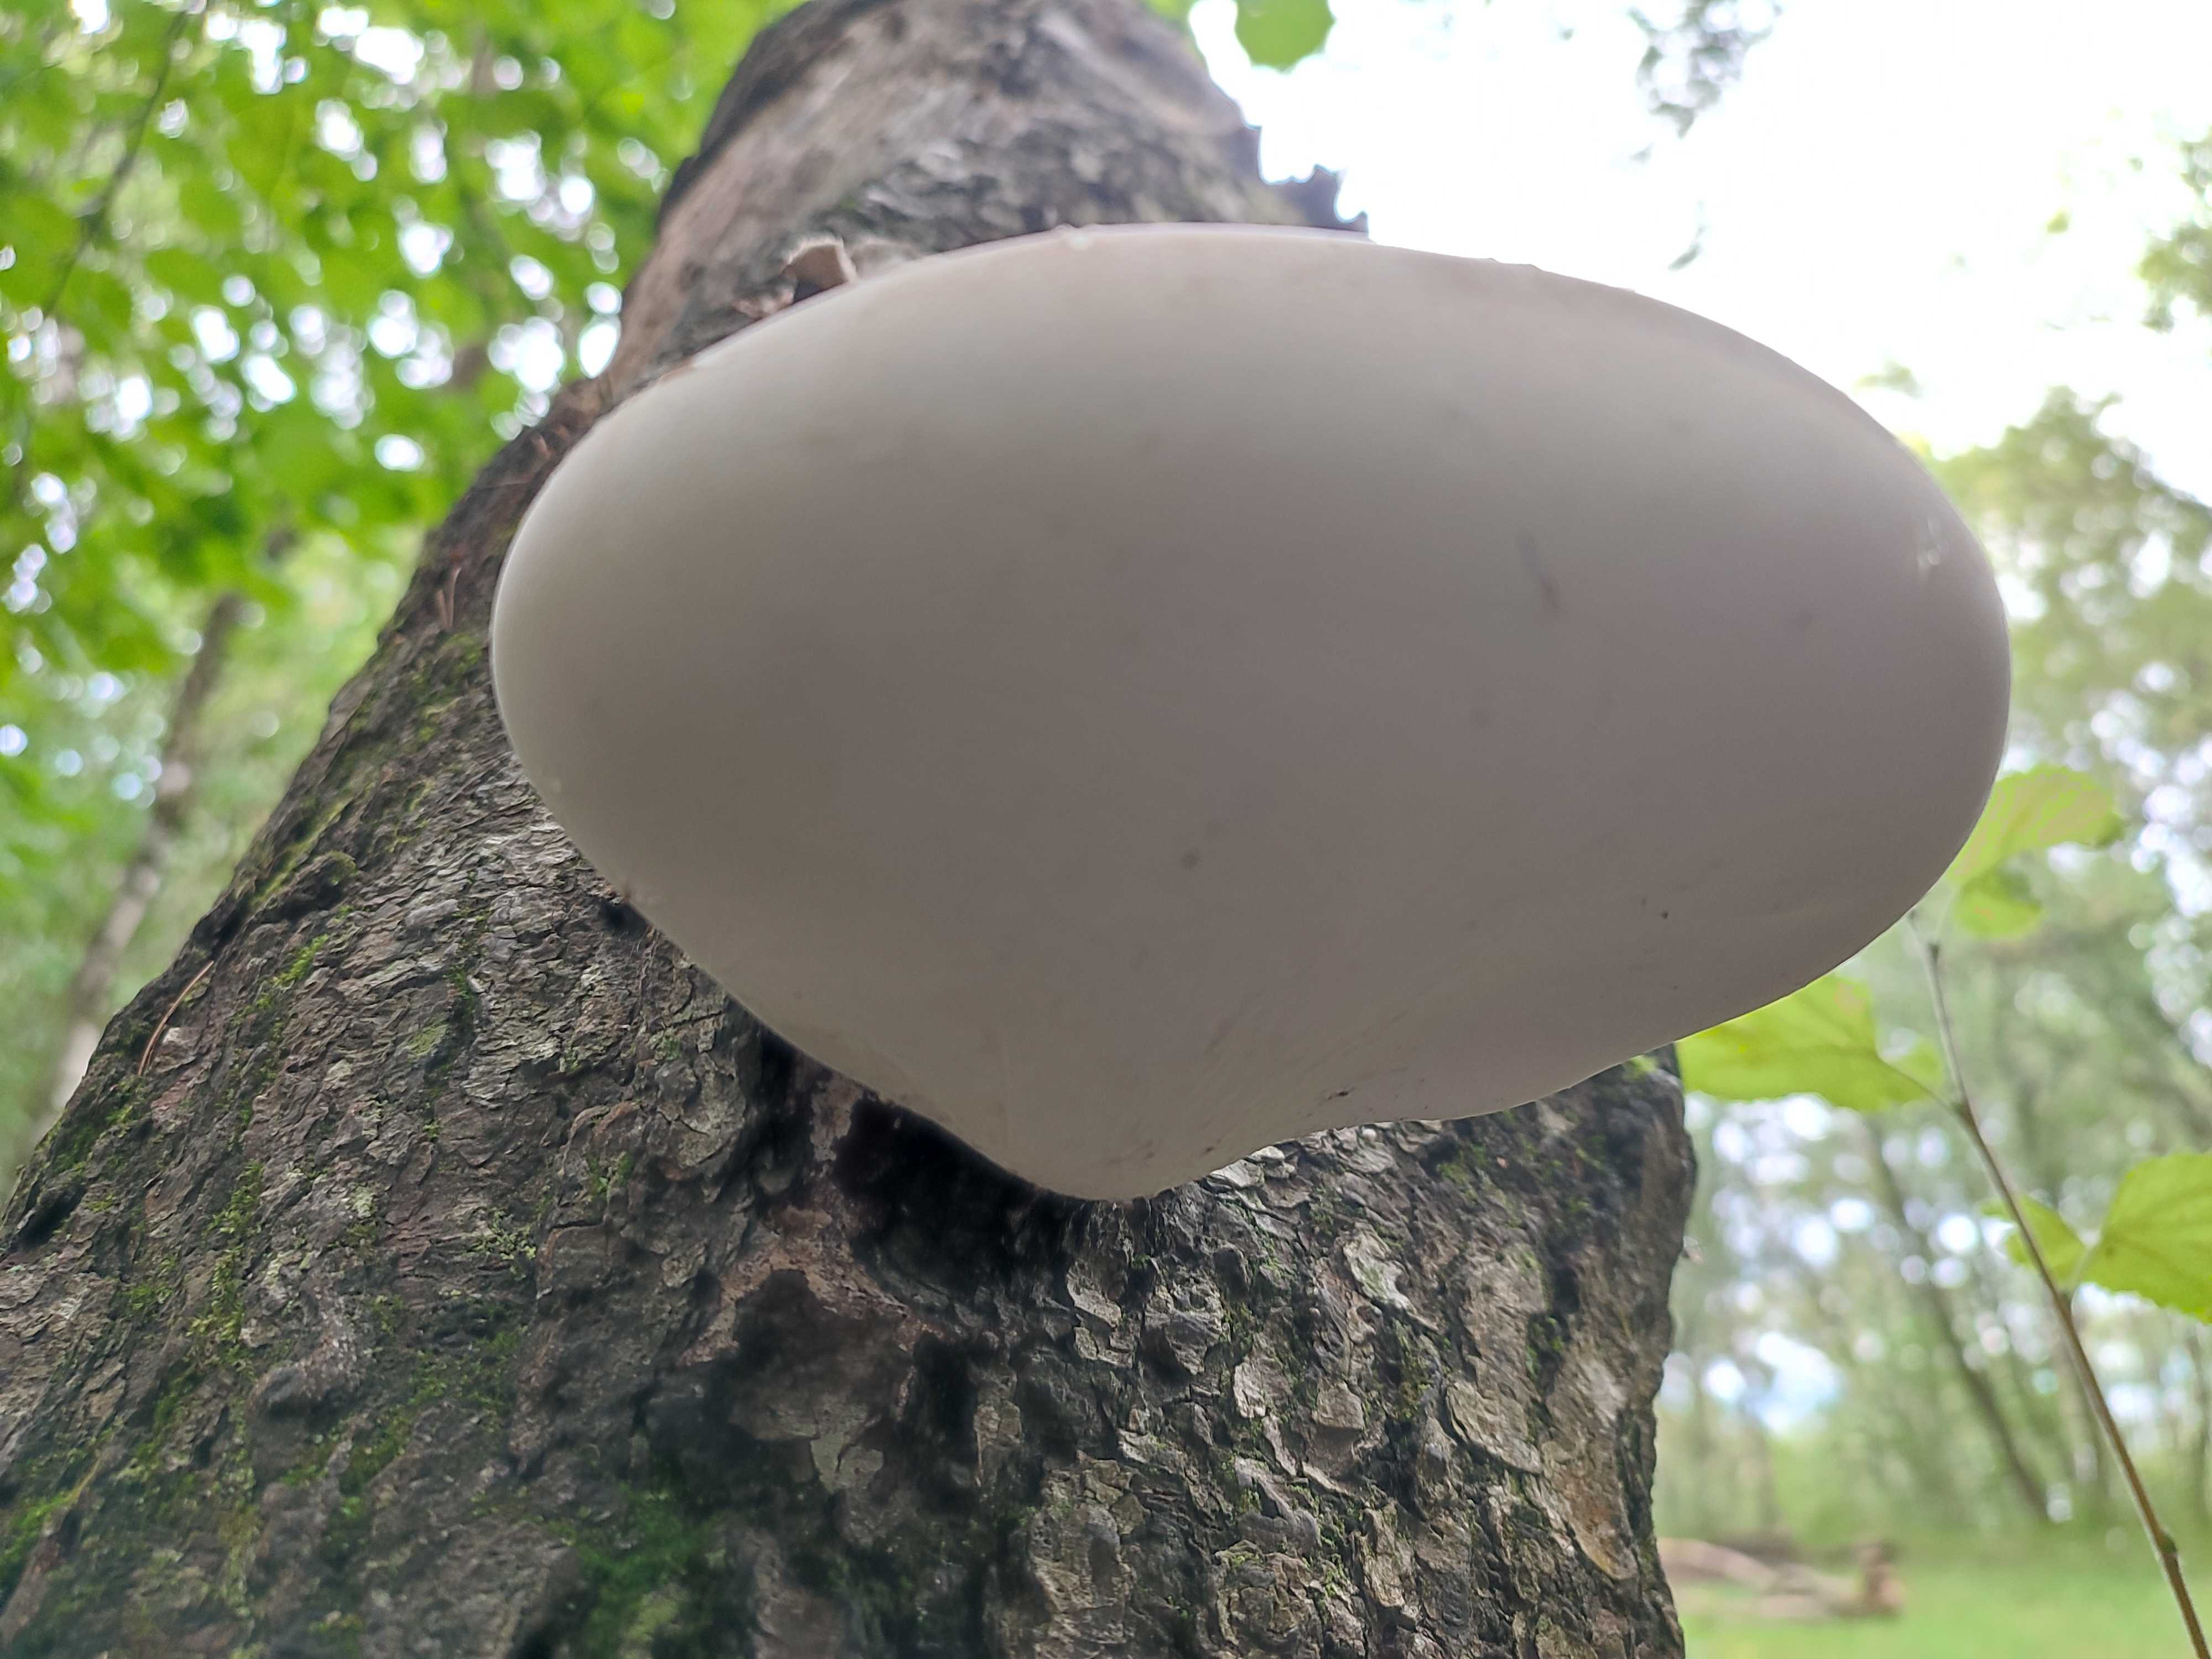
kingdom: Fungi
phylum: Basidiomycota
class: Agaricomycetes
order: Polyporales
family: Fomitopsidaceae
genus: Fomitopsis
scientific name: Fomitopsis betulina
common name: birkeporesvamp
